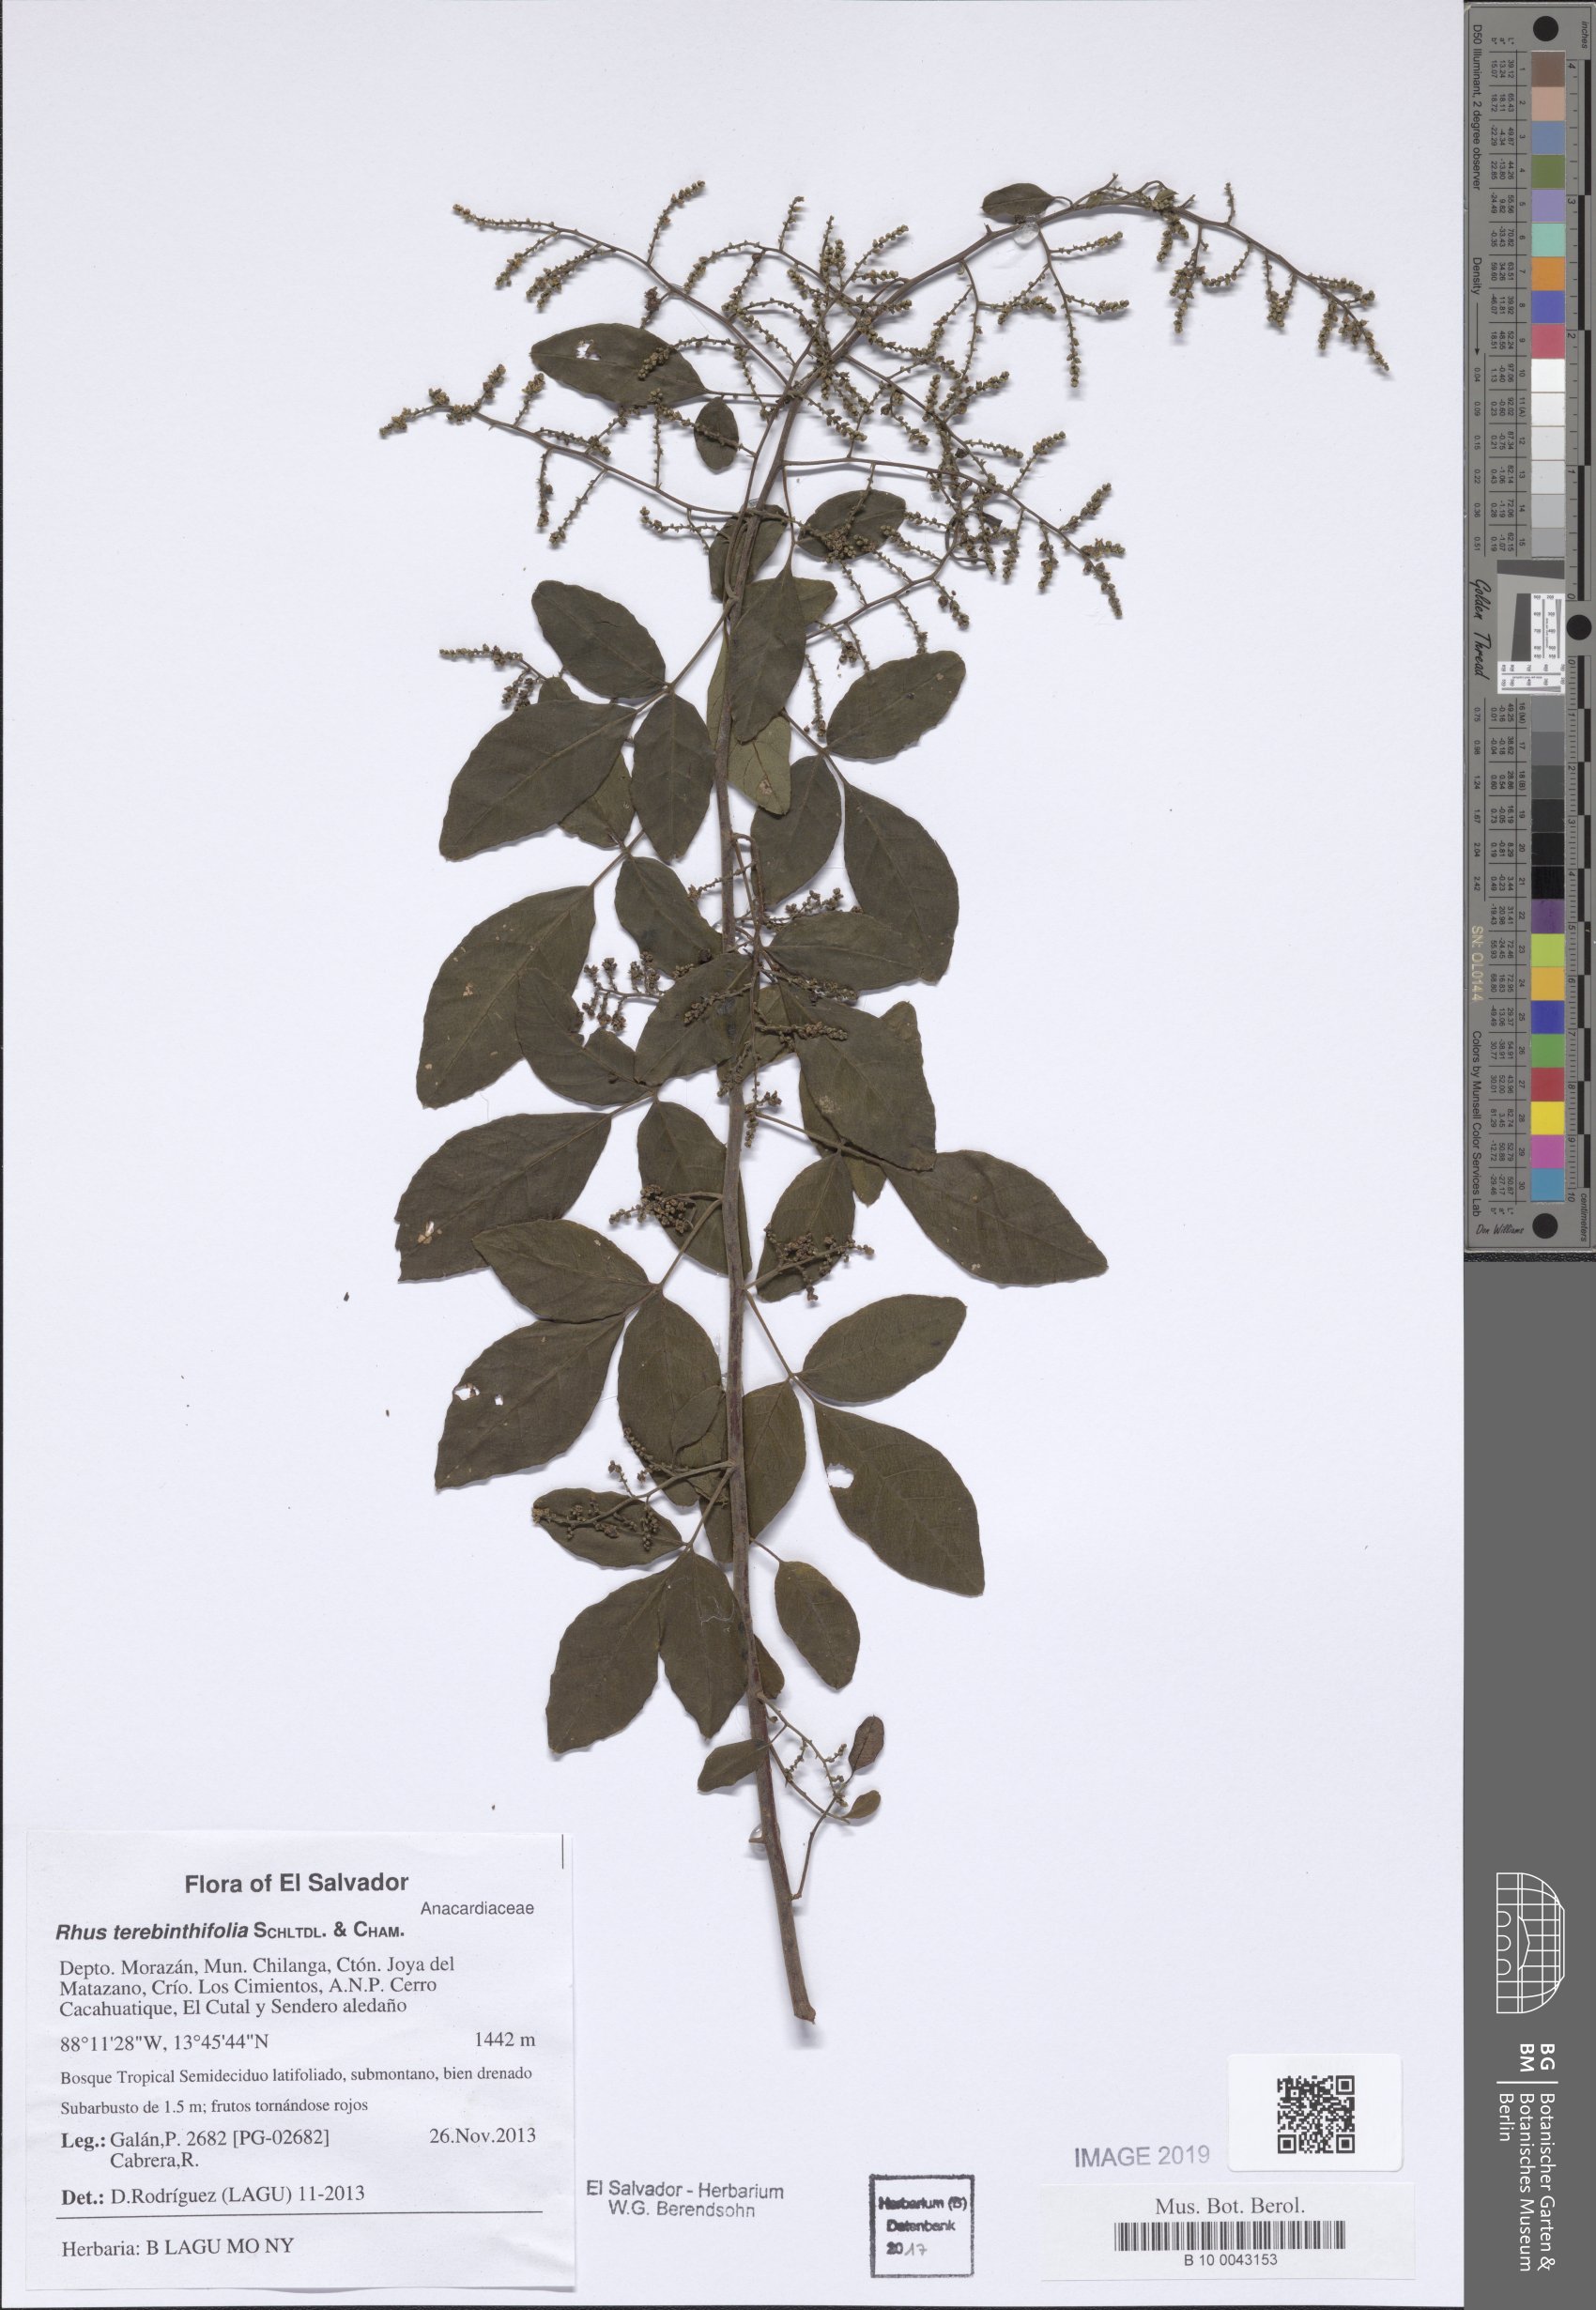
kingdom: Plantae
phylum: Tracheophyta
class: Magnoliopsida
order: Sapindales
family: Anacardiaceae
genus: Rhus
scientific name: Rhus terebinthifolia
